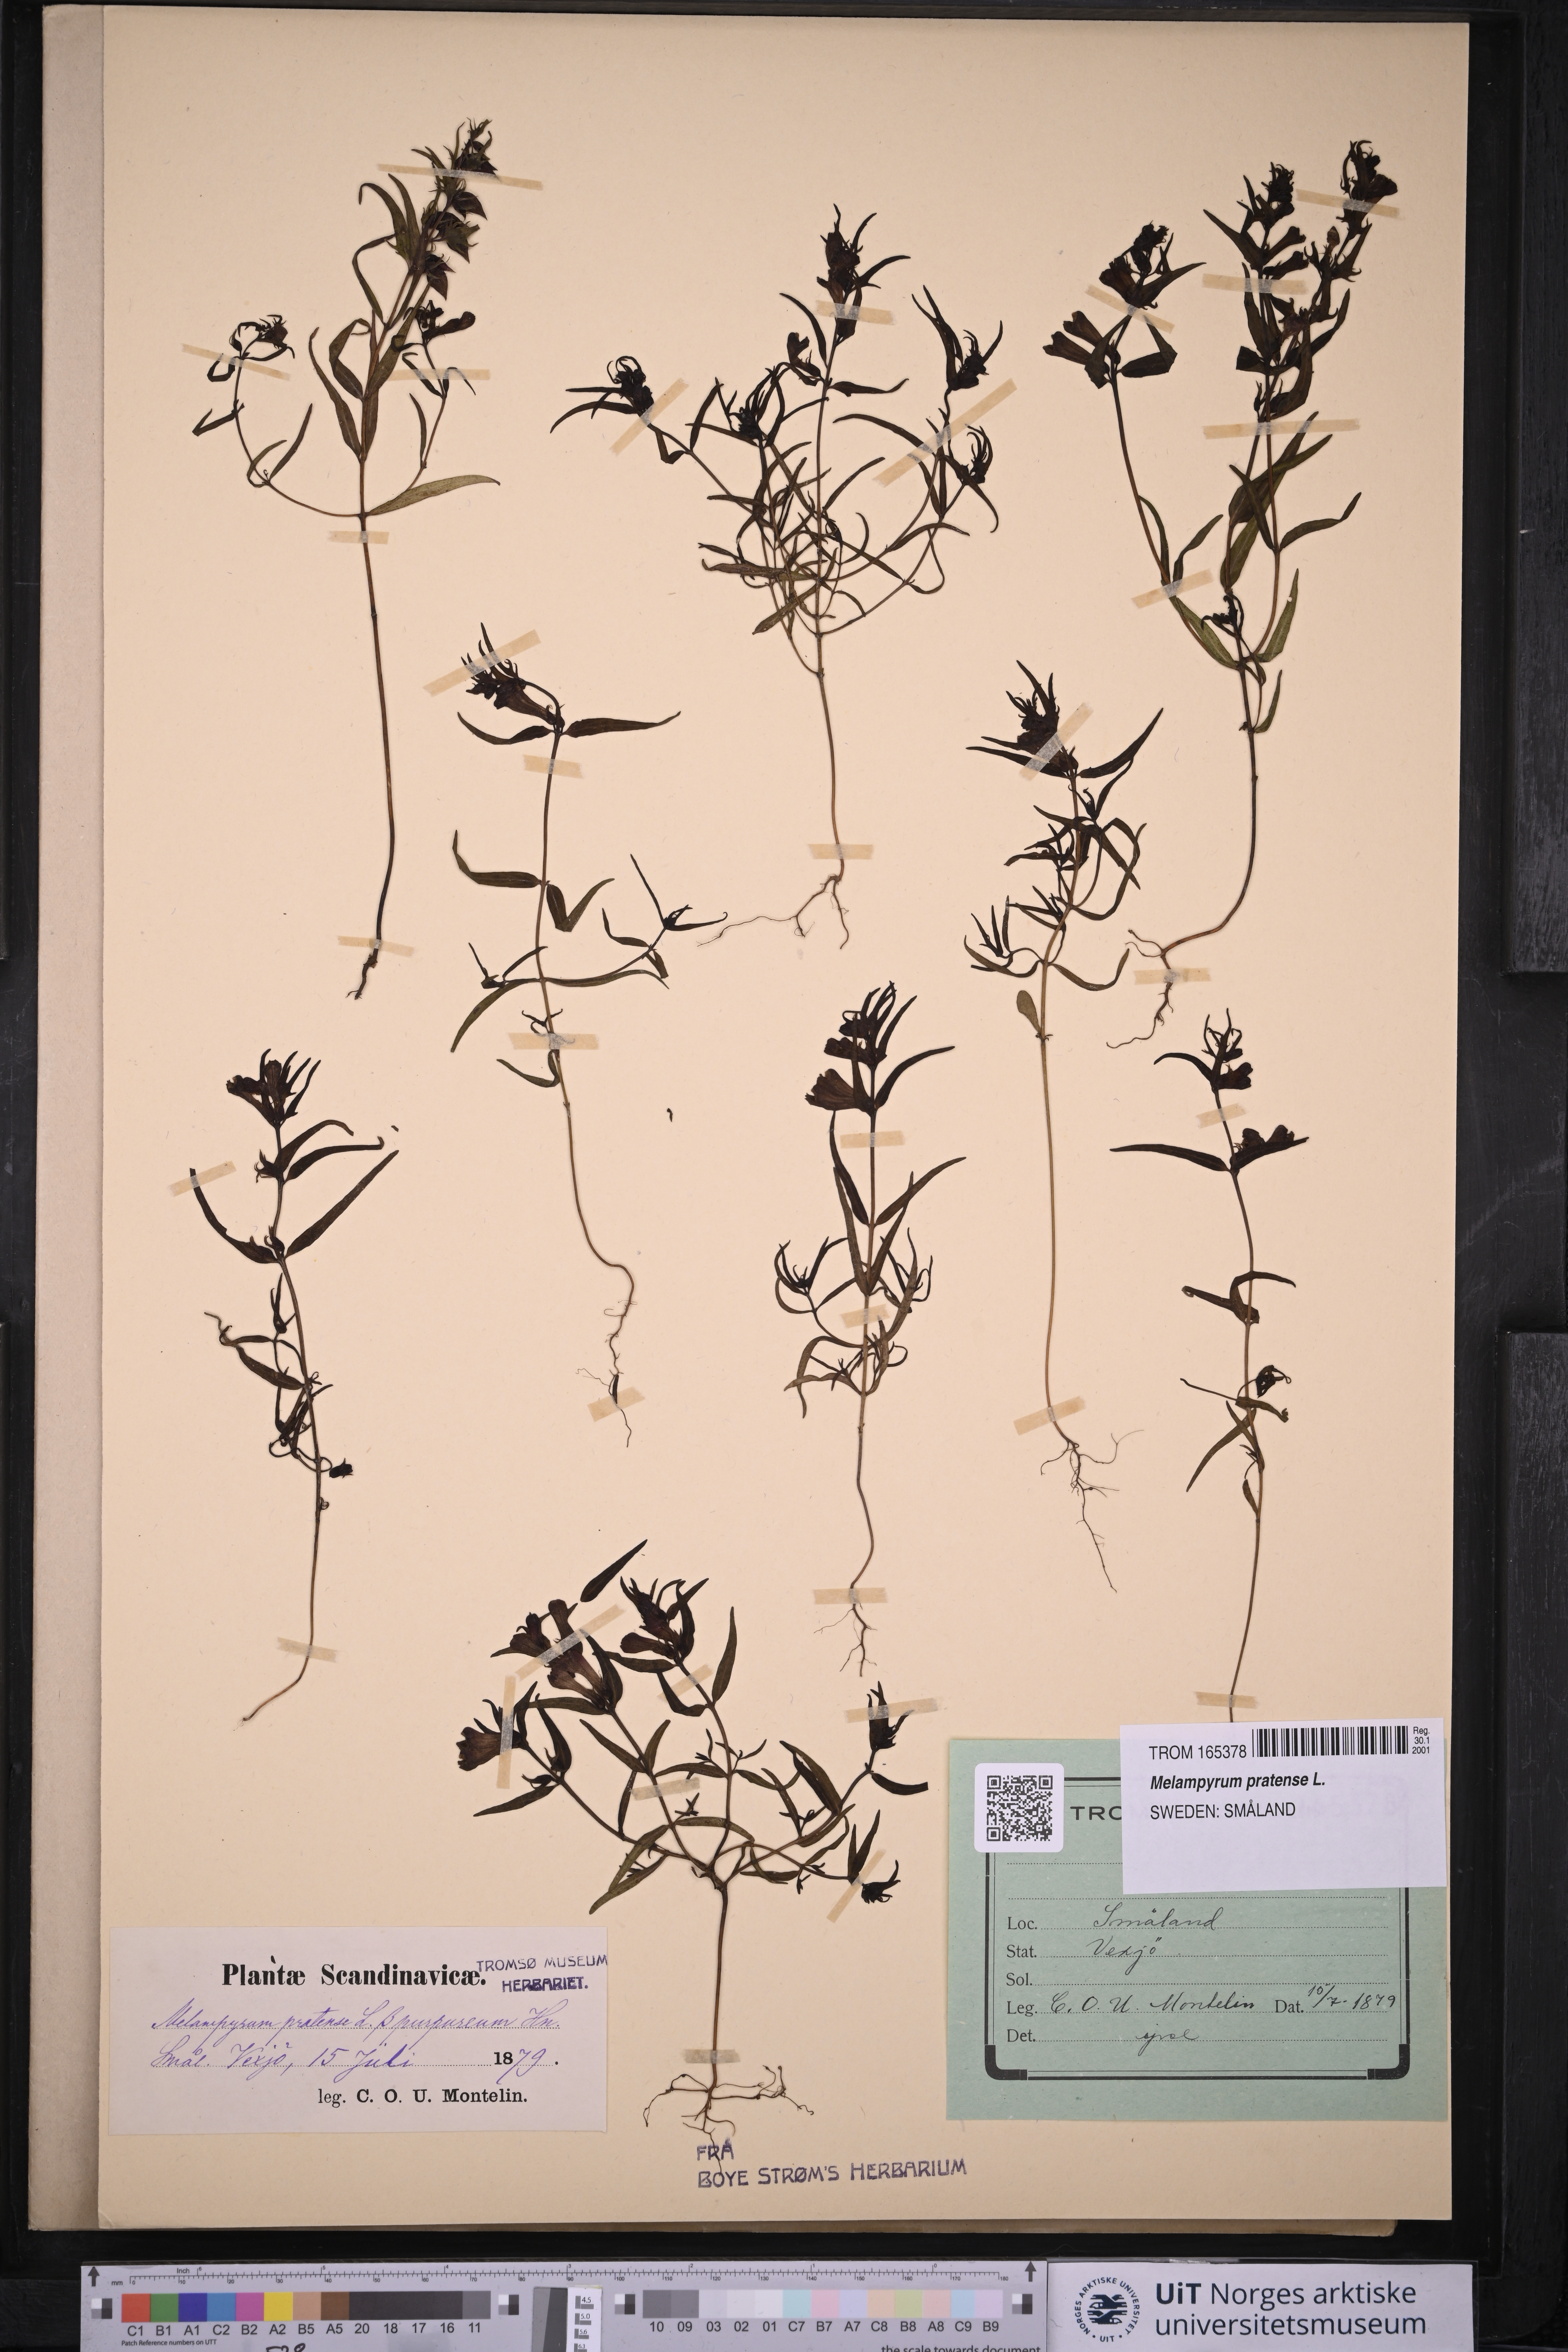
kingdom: Plantae
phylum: Tracheophyta
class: Magnoliopsida
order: Lamiales
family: Orobanchaceae
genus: Melampyrum
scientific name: Melampyrum pratense
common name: Common cow-wheat
